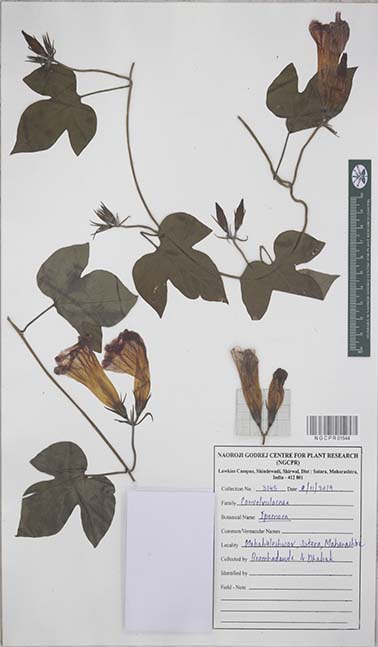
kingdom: Plantae
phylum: Tracheophyta
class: Magnoliopsida
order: Solanales
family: Convolvulaceae
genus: Ipomoea
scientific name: Ipomoea
